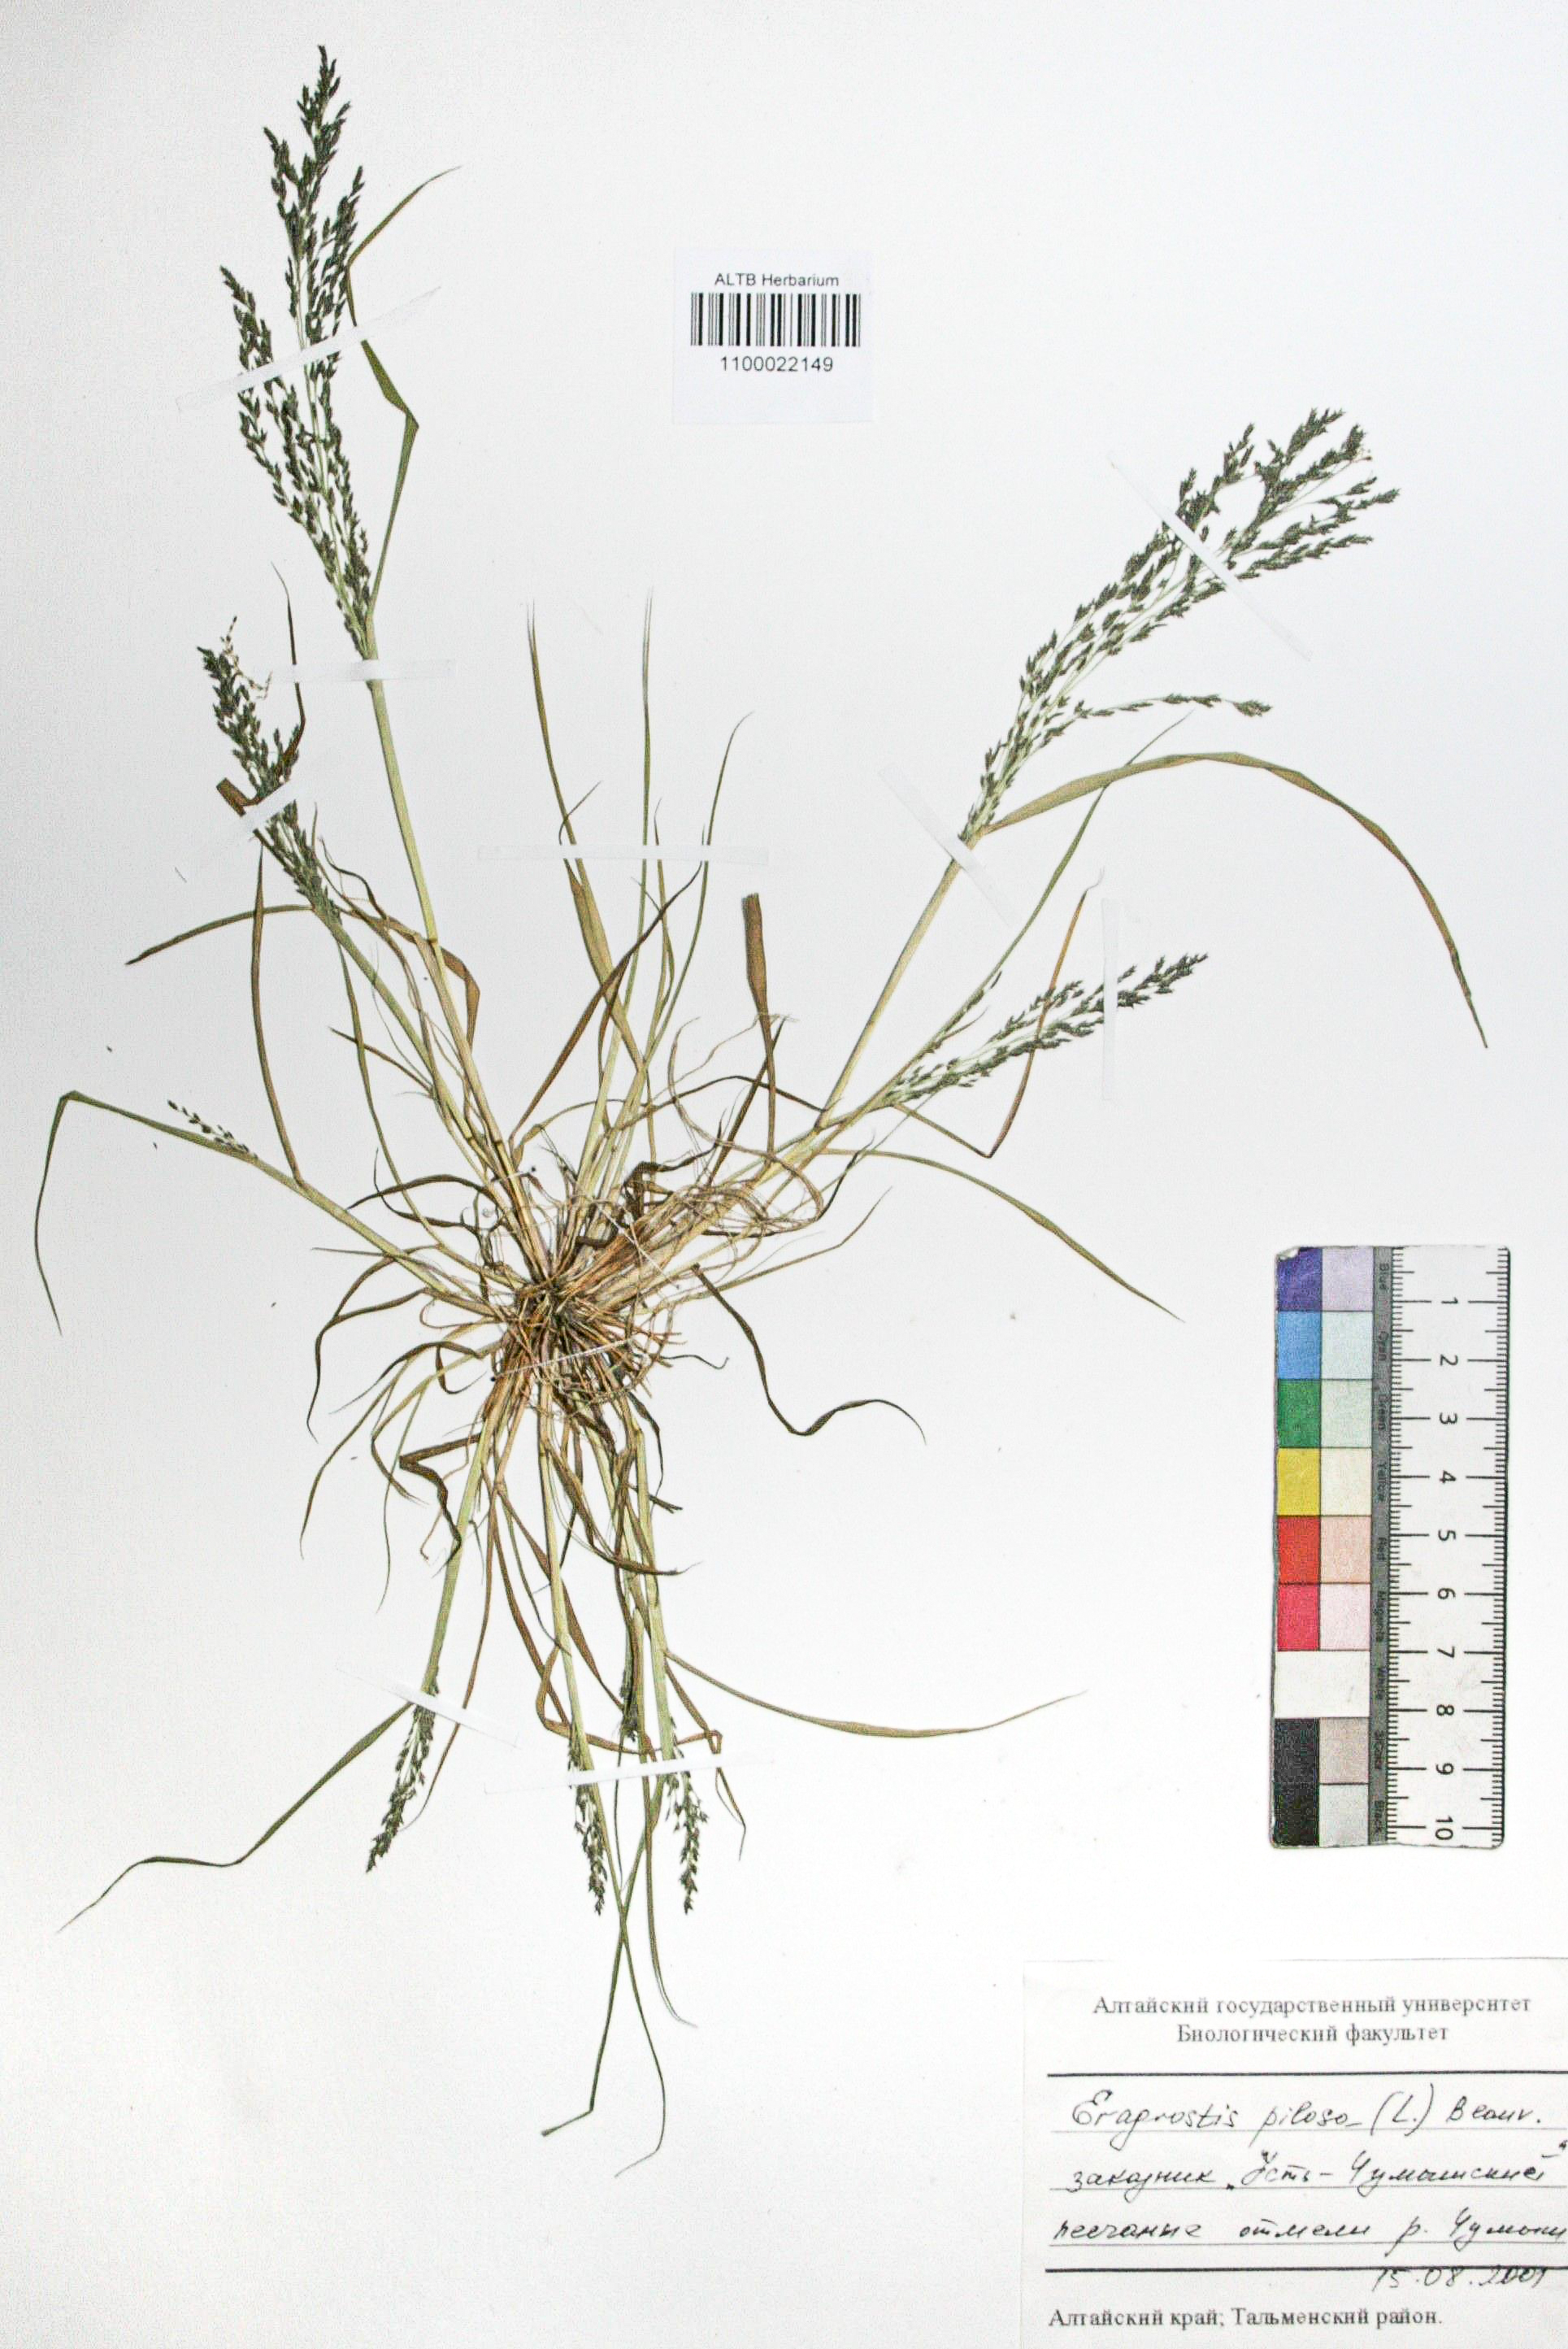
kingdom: Plantae
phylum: Tracheophyta
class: Liliopsida
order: Poales
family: Poaceae
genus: Eragrostis
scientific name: Eragrostis pilosa
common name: Indian lovegrass
